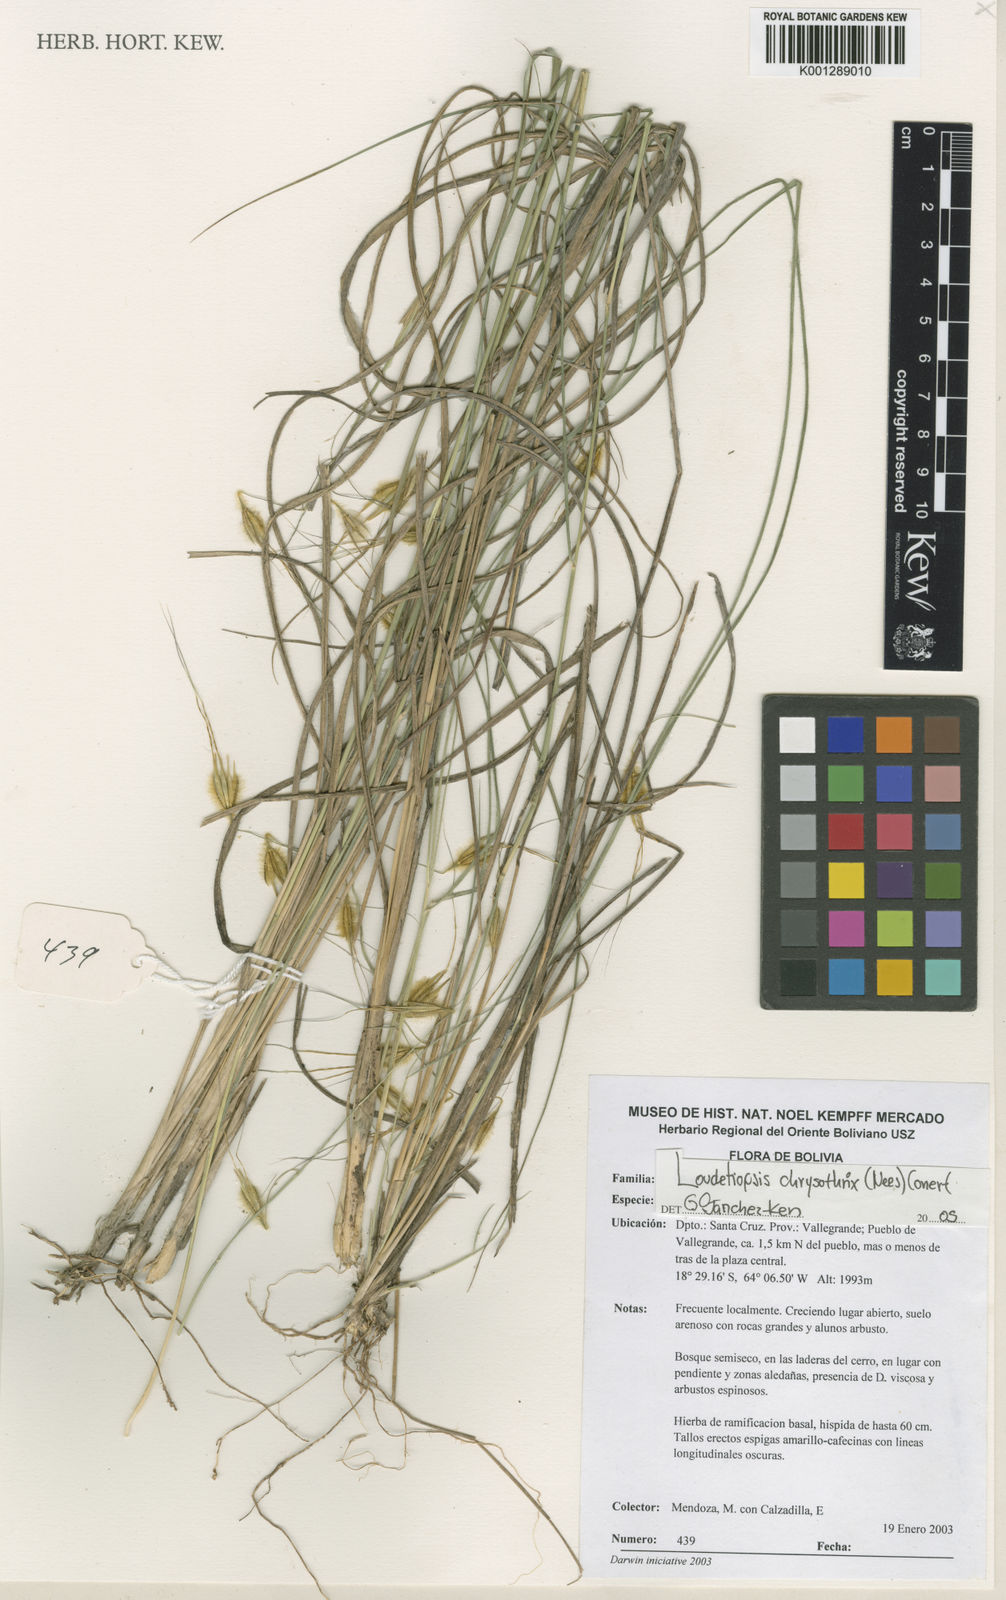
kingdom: Plantae
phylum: Tracheophyta
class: Liliopsida
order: Poales
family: Poaceae
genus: Loudetiopsis
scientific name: Loudetiopsis chrysothrix
